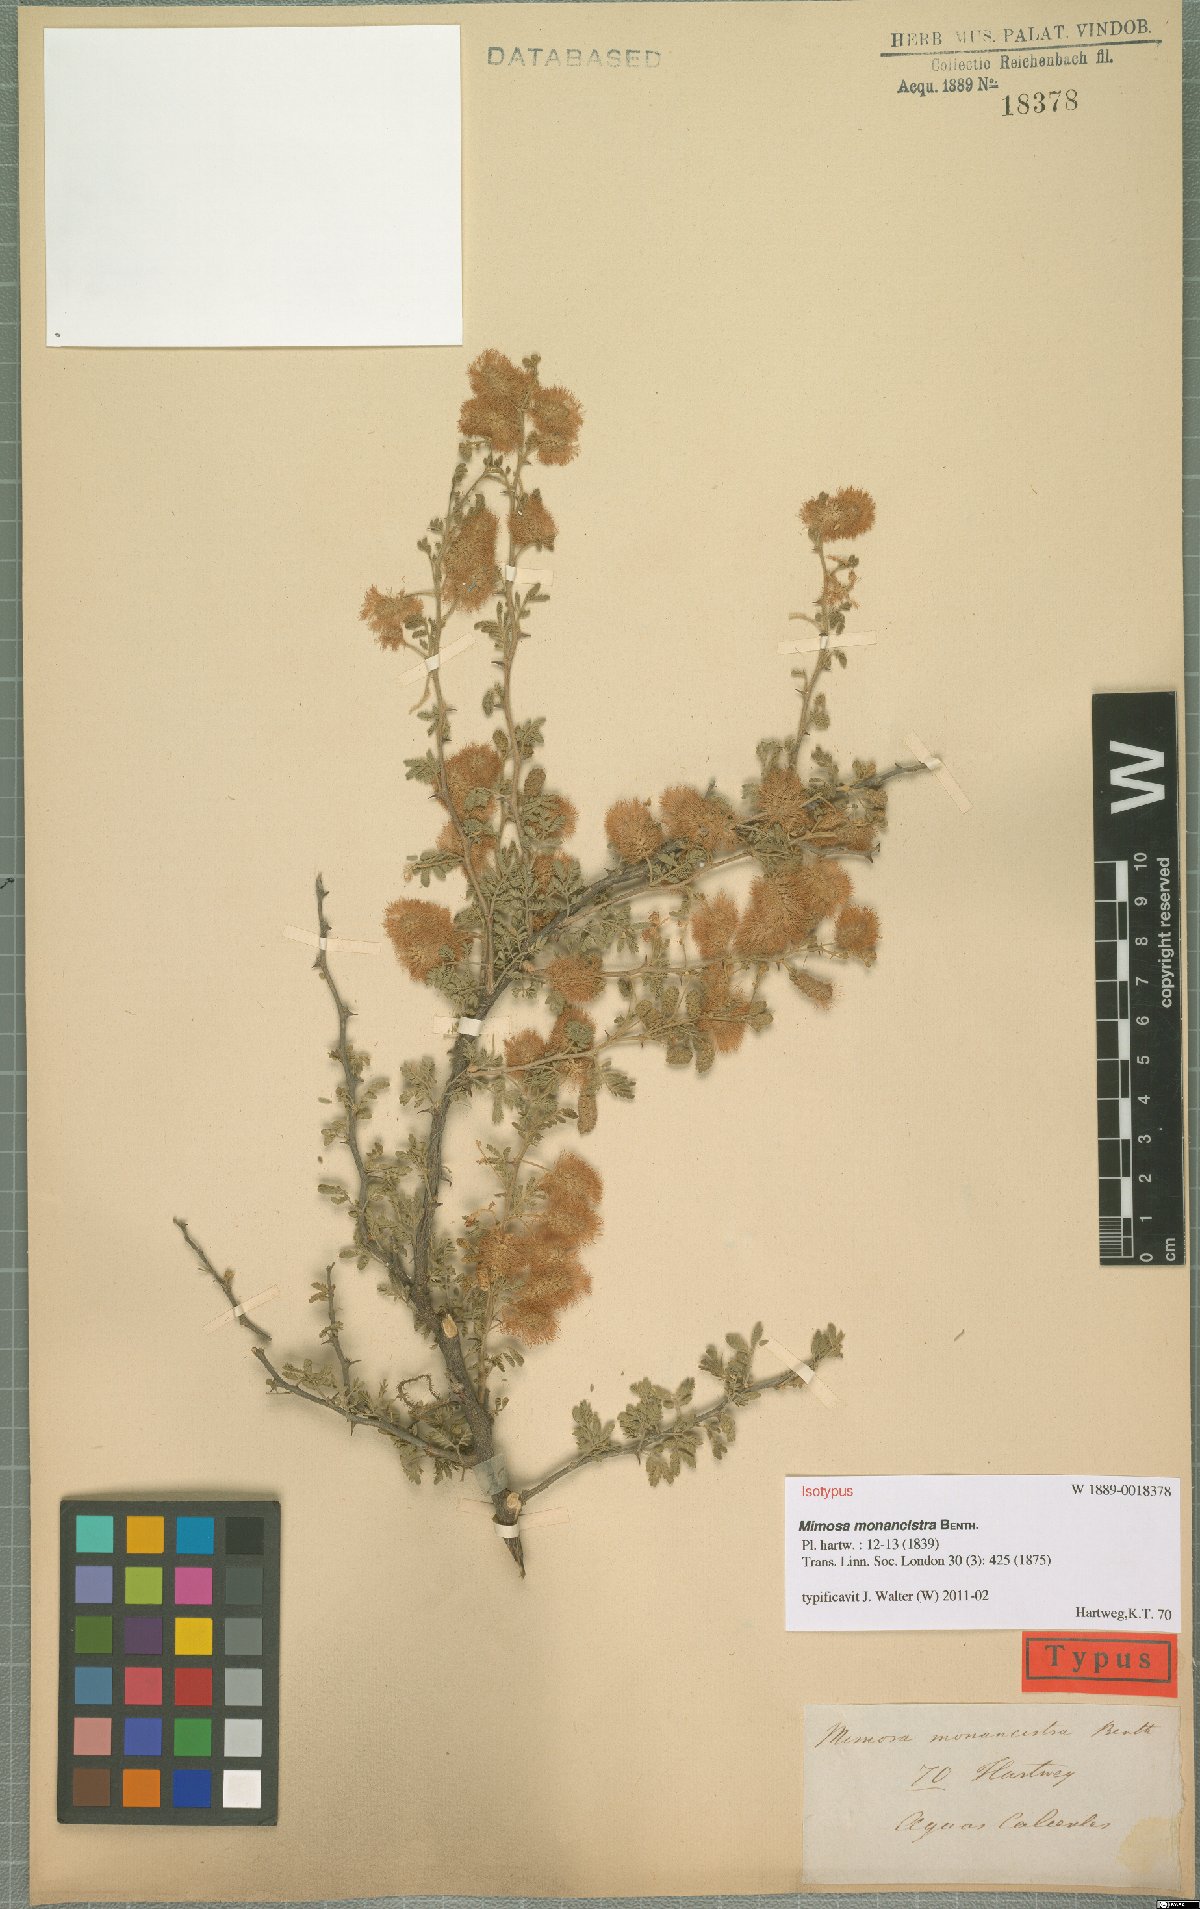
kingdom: Plantae
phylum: Tracheophyta
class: Magnoliopsida
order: Fabales
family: Fabaceae
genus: Mimosa
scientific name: Mimosa monancistra
